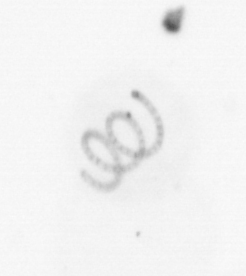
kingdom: Chromista
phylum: Ochrophyta
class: Bacillariophyceae
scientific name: Bacillariophyceae
